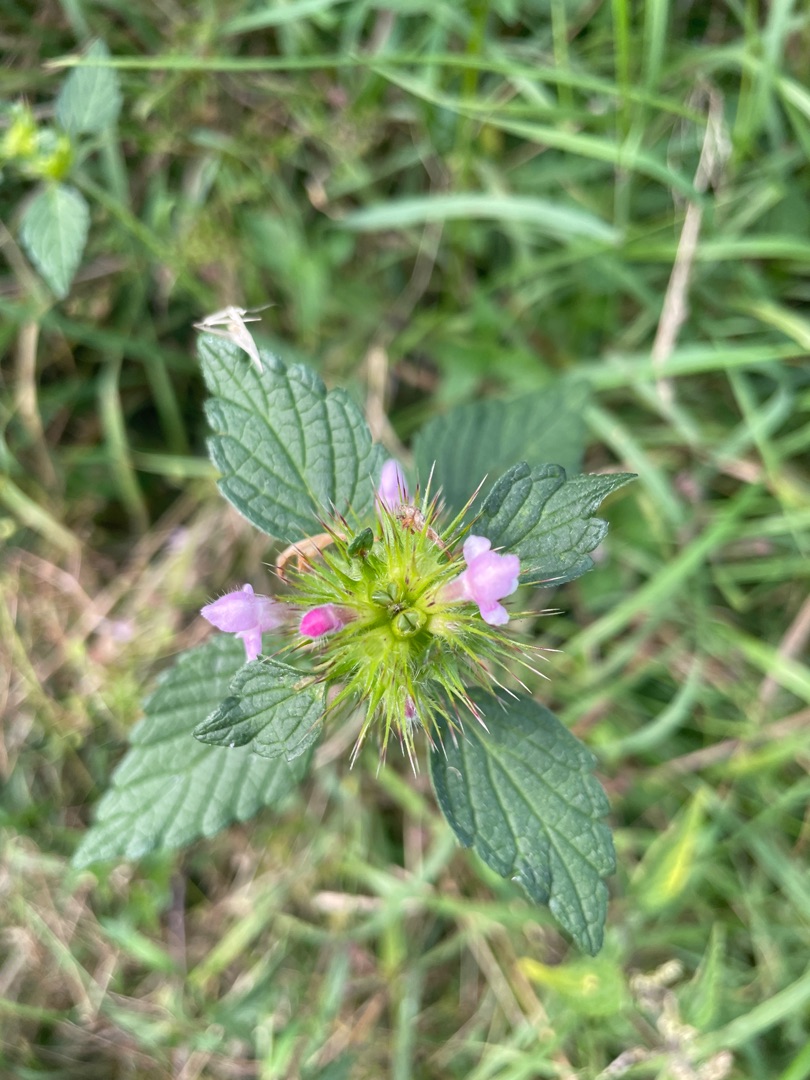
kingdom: Plantae
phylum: Tracheophyta
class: Magnoliopsida
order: Lamiales
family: Lamiaceae
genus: Galeopsis
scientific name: Galeopsis tetrahit
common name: Almindelig hanekro
